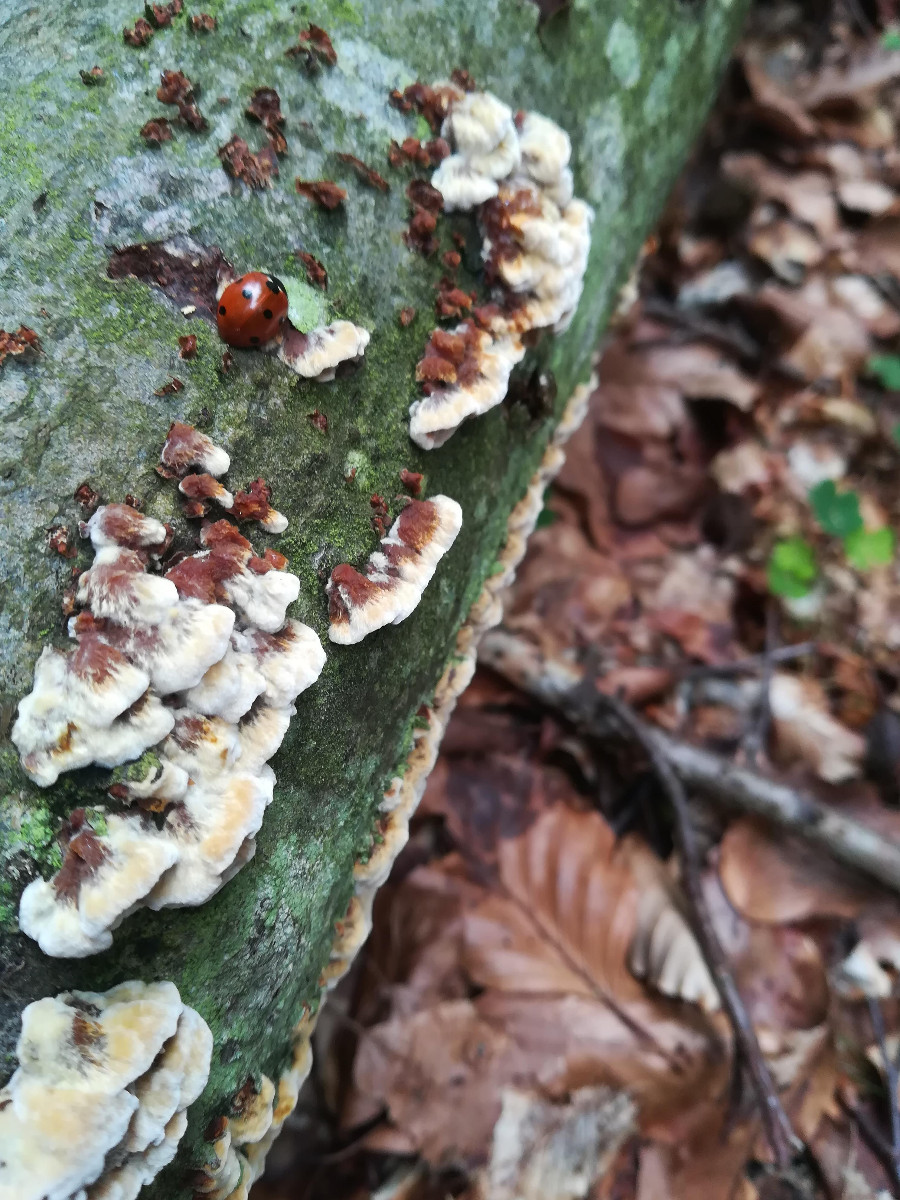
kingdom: Fungi
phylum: Basidiomycota
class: Agaricomycetes
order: Hymenochaetales
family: Hymenochaetaceae
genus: Mensularia
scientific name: Mensularia nodulosa
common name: bøge-spejlporesvamp
